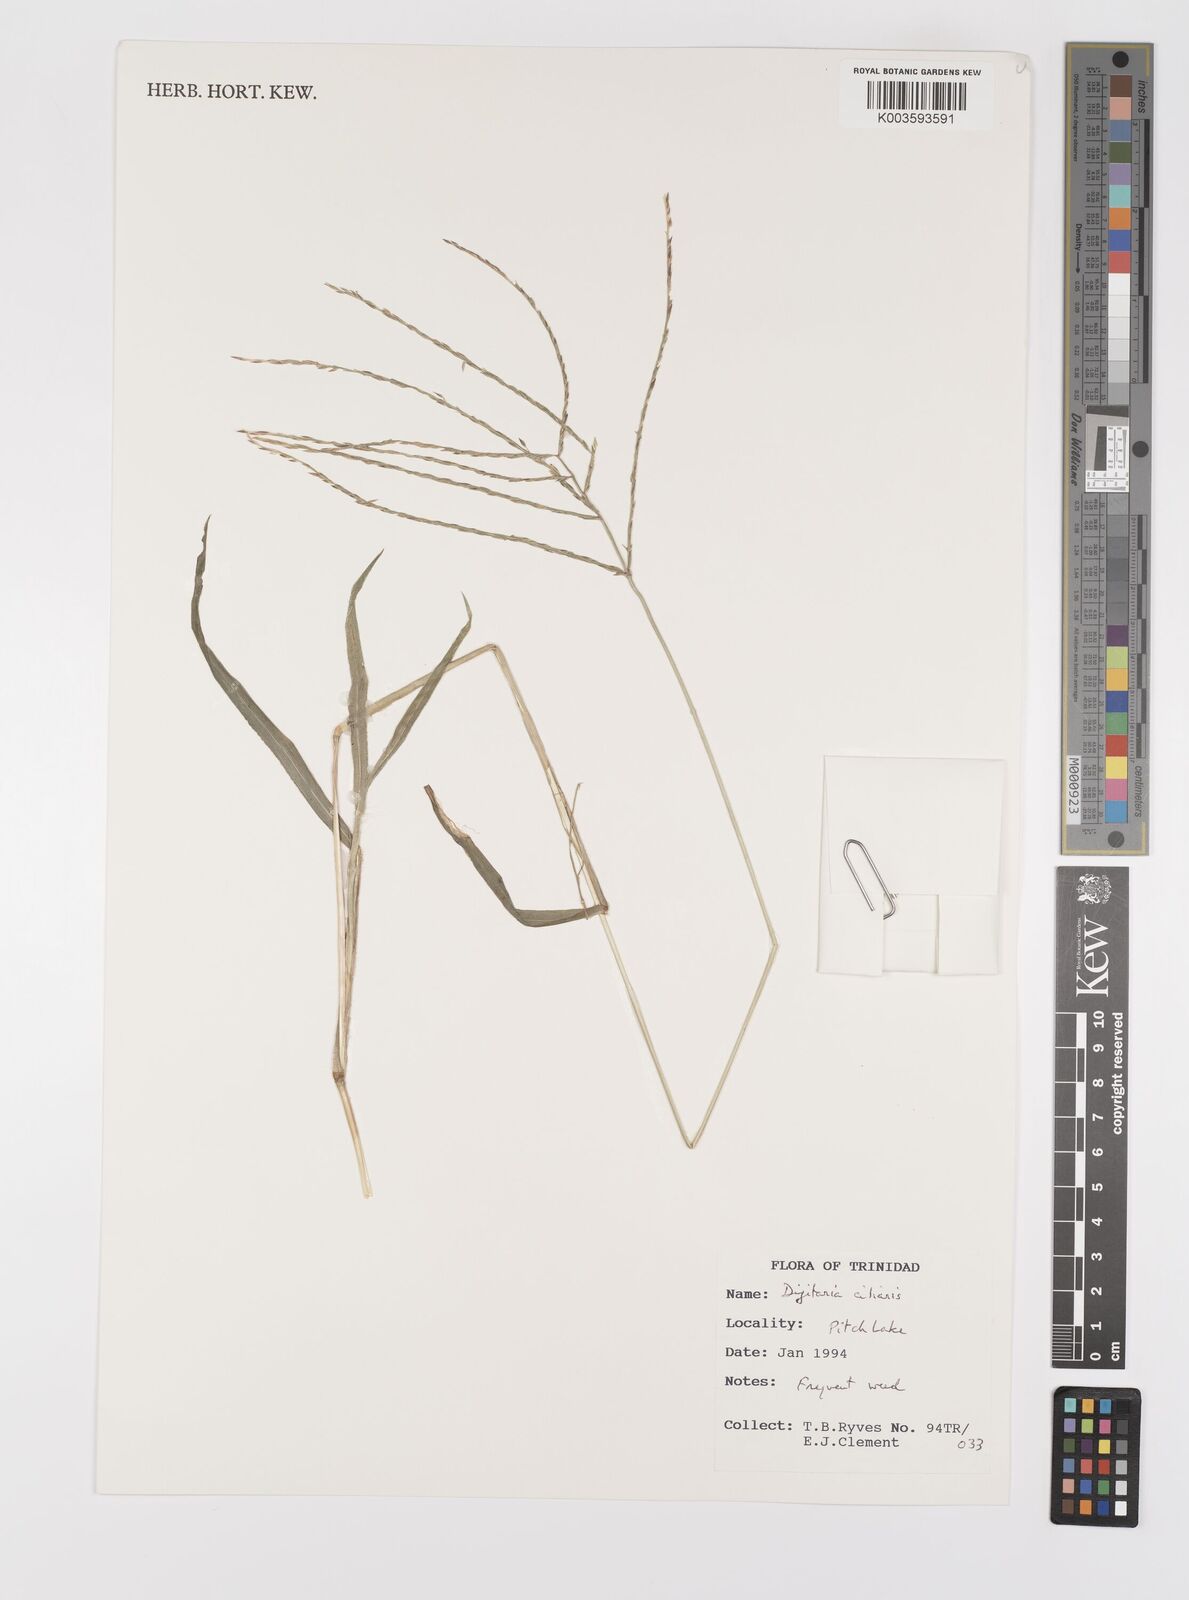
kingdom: Plantae
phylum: Tracheophyta
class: Liliopsida
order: Poales
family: Poaceae
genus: Digitaria
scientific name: Digitaria ciliaris
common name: Tropical finger-grass
